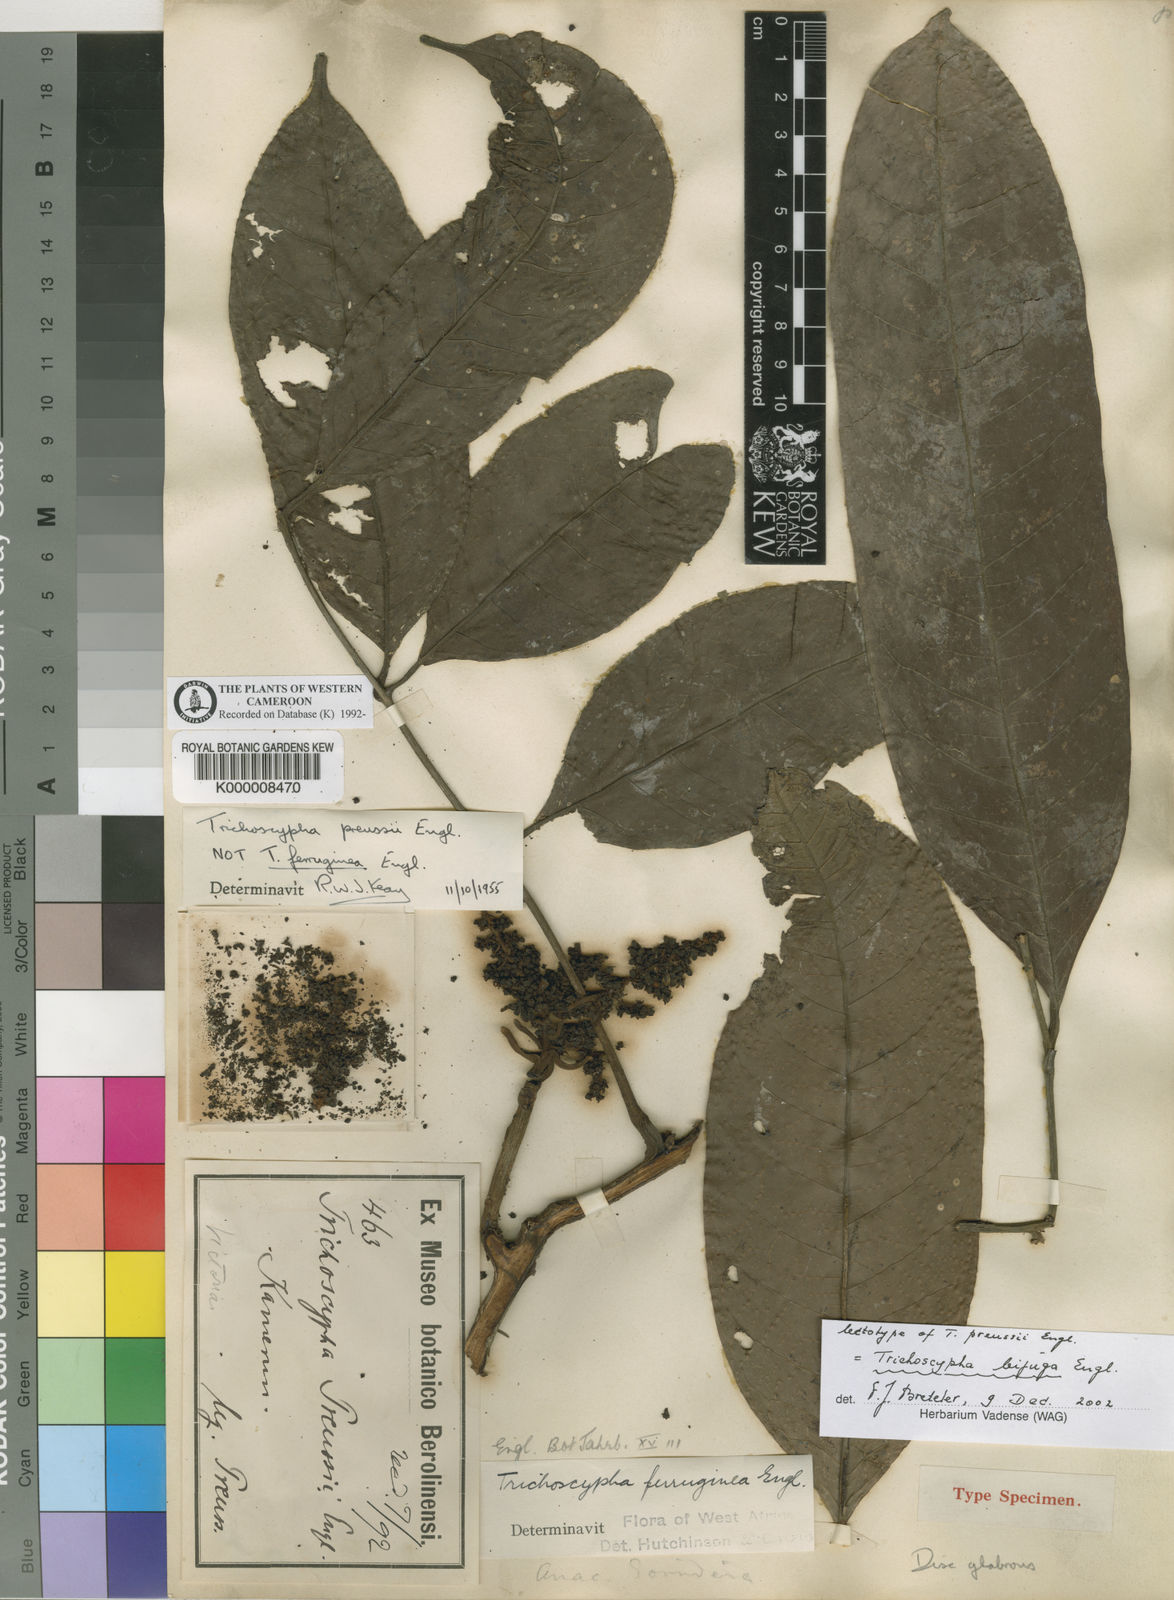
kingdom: Plantae
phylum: Tracheophyta
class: Magnoliopsida
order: Sapindales
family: Anacardiaceae
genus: Trichoscypha
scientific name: Trichoscypha bijuga
